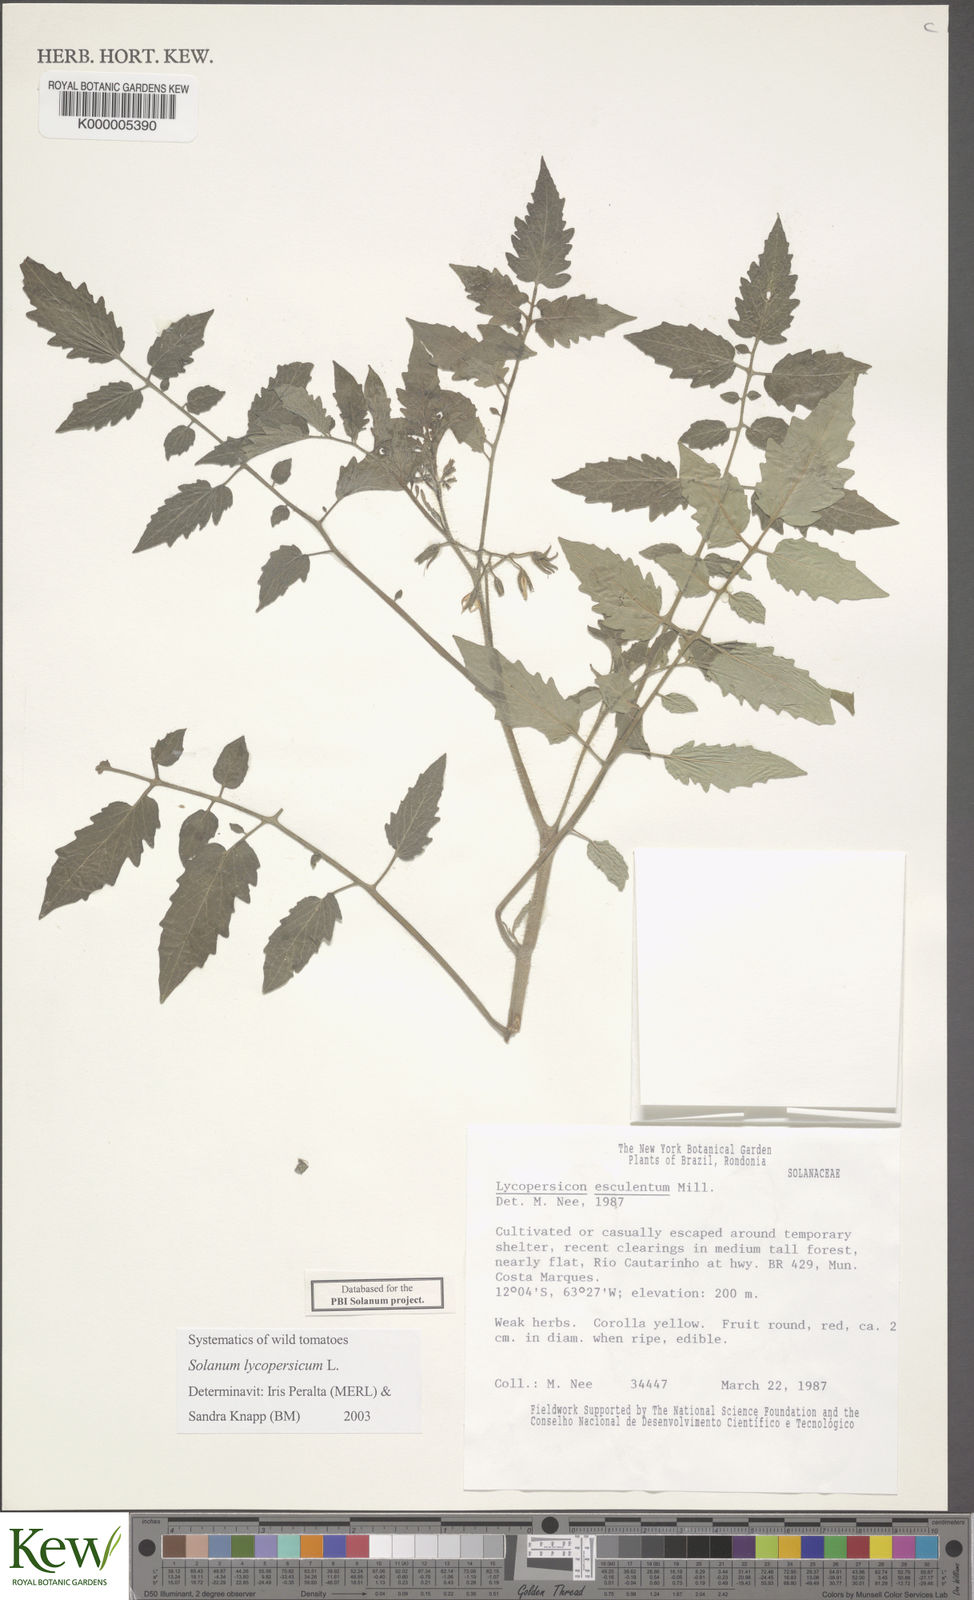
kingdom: Plantae
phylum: Tracheophyta
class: Magnoliopsida
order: Solanales
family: Solanaceae
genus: Solanum
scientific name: Solanum lycopersicum
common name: Garden tomato
